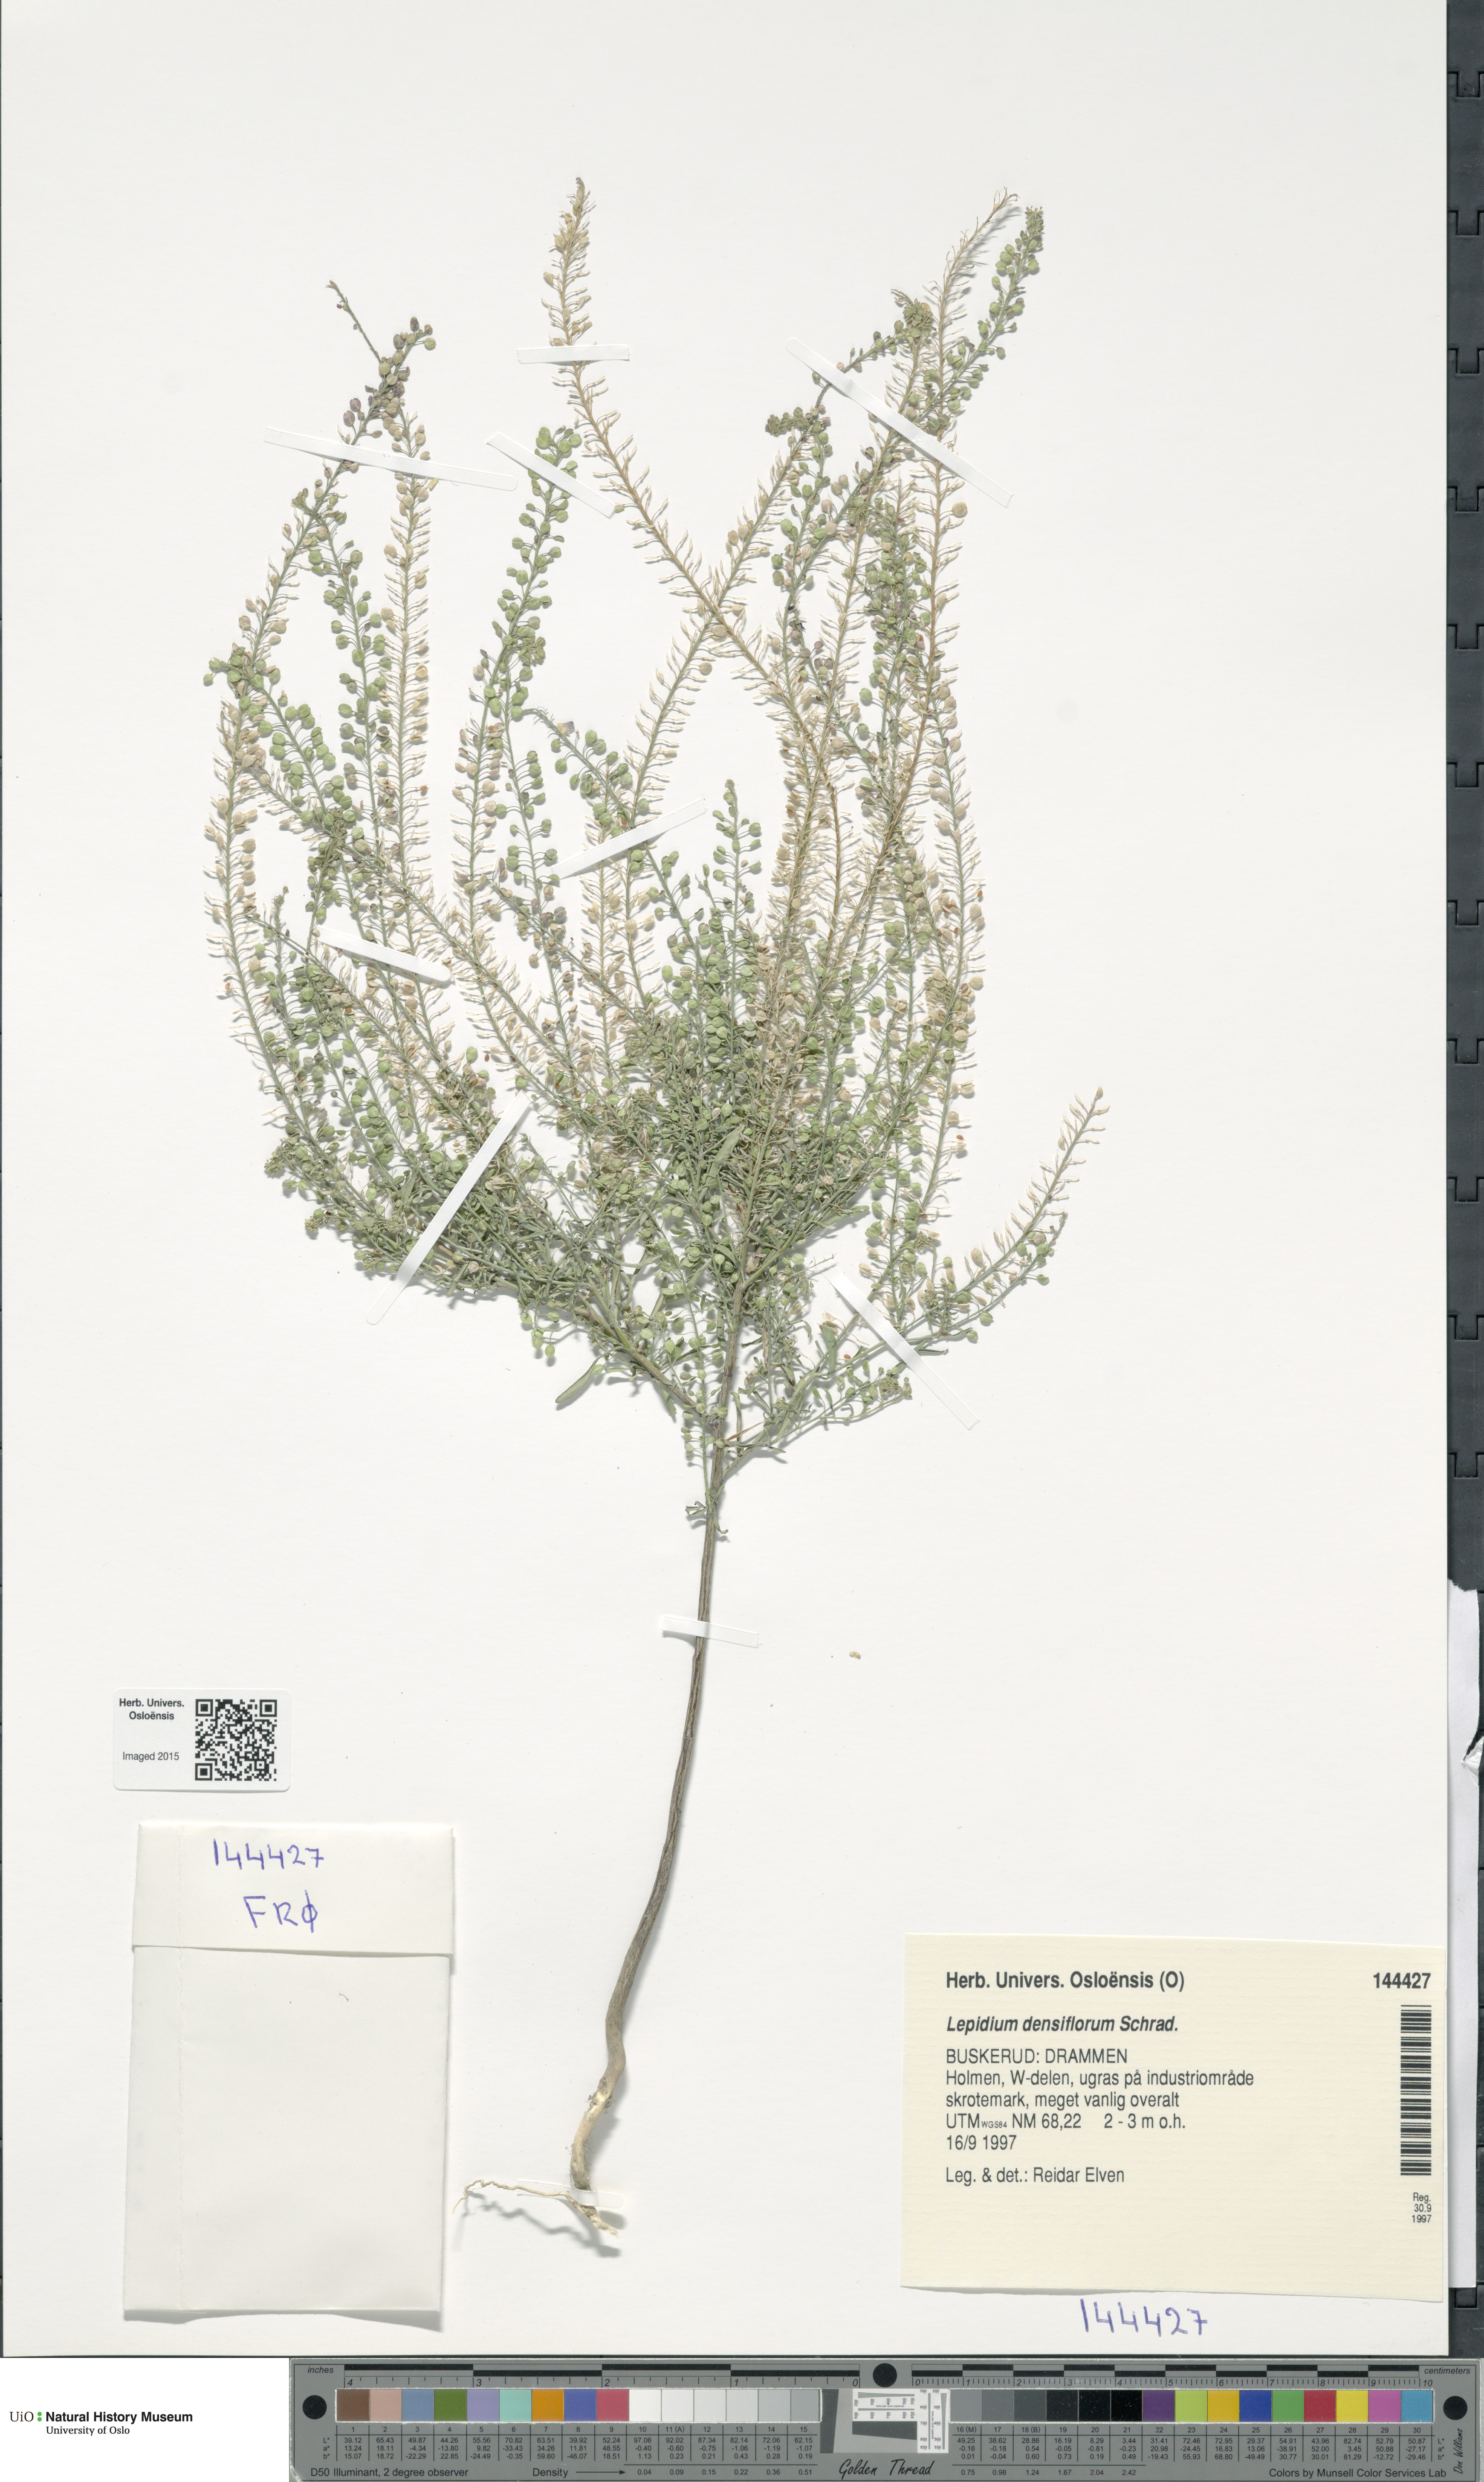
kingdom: Plantae
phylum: Tracheophyta
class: Magnoliopsida
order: Brassicales
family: Brassicaceae
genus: Lepidium
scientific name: Lepidium densiflorum
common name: Miner's pepperwort
